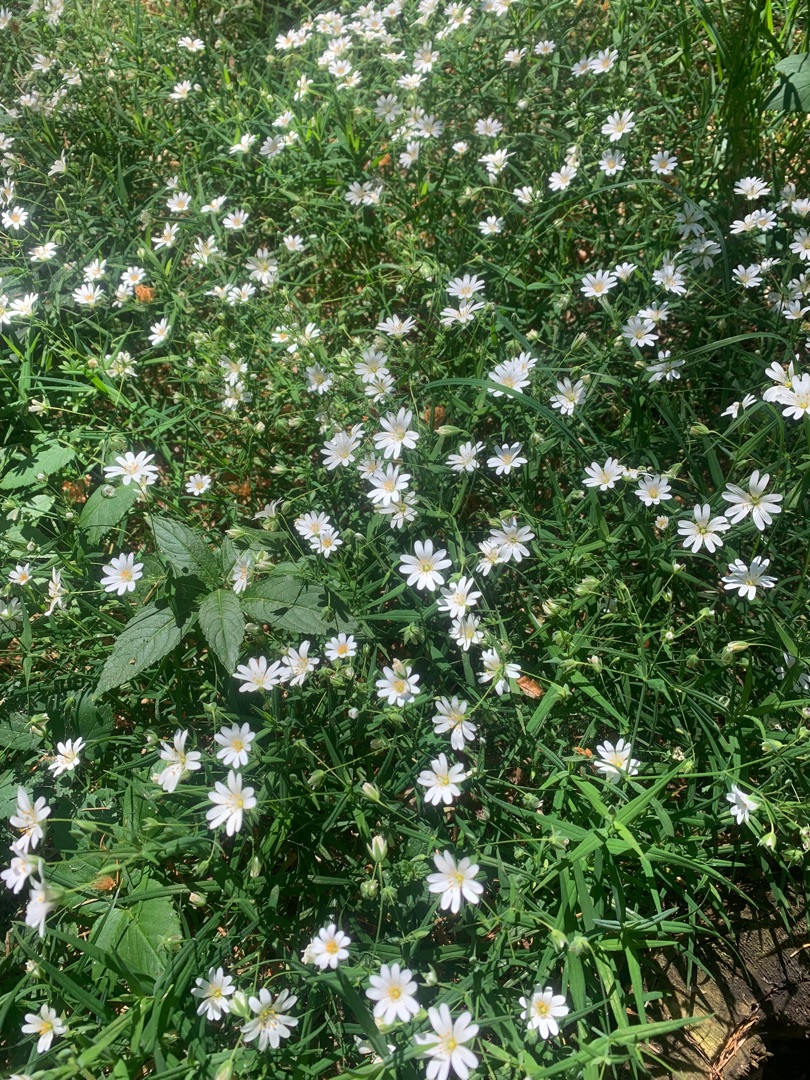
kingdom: Plantae
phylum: Tracheophyta
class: Magnoliopsida
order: Caryophyllales
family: Caryophyllaceae
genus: Rabelera
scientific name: Rabelera holostea
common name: Stor fladstjerne
